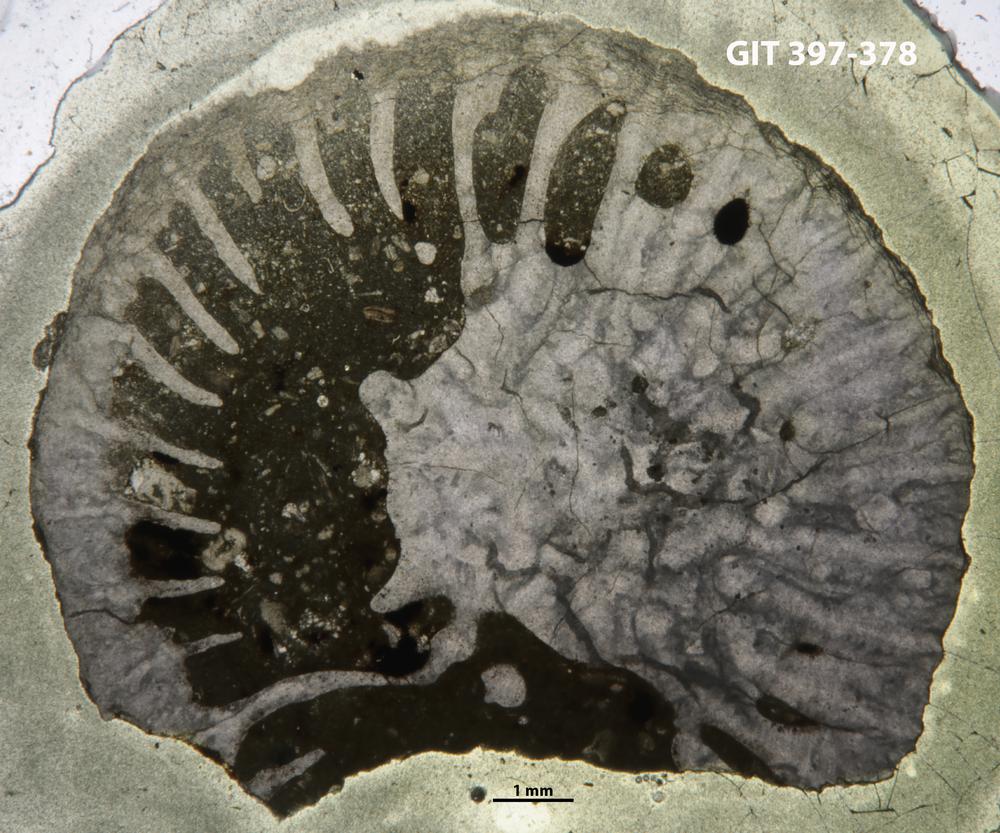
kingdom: Animalia
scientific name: Animalia
